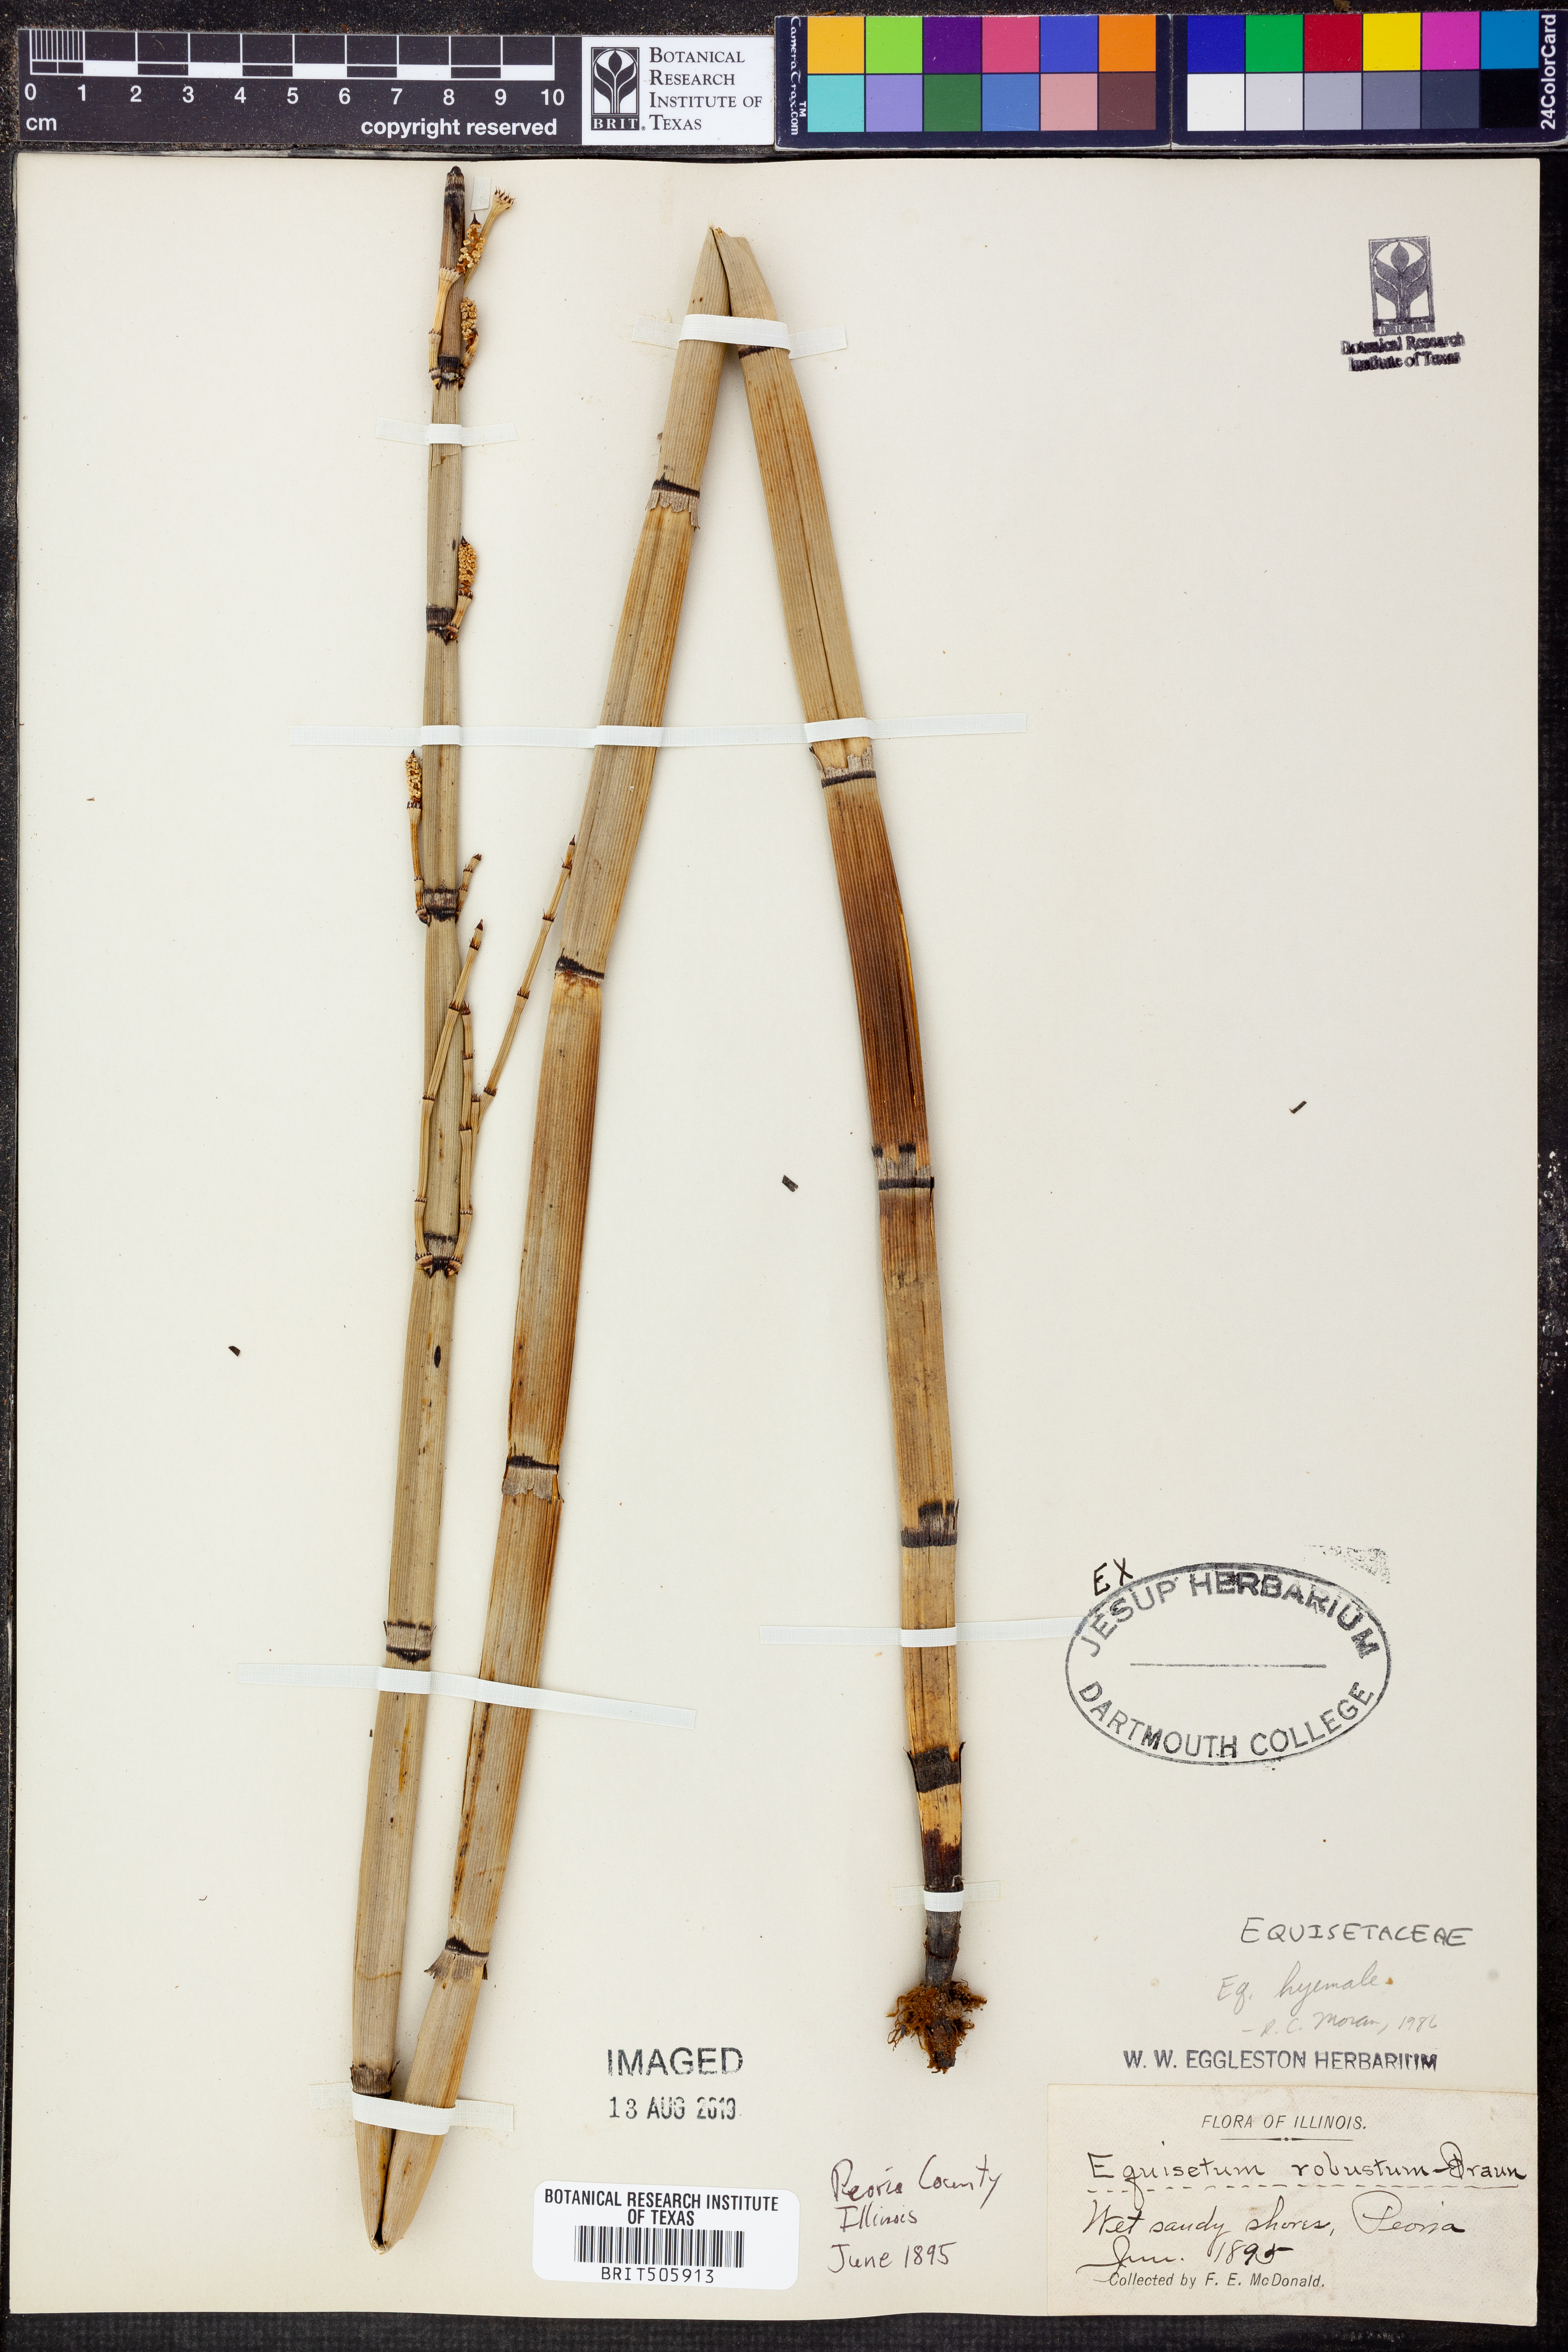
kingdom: Plantae
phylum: Tracheophyta
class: Polypodiopsida
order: Equisetales
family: Equisetaceae
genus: Equisetum
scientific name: Equisetum hyemale
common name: Rough horsetail
